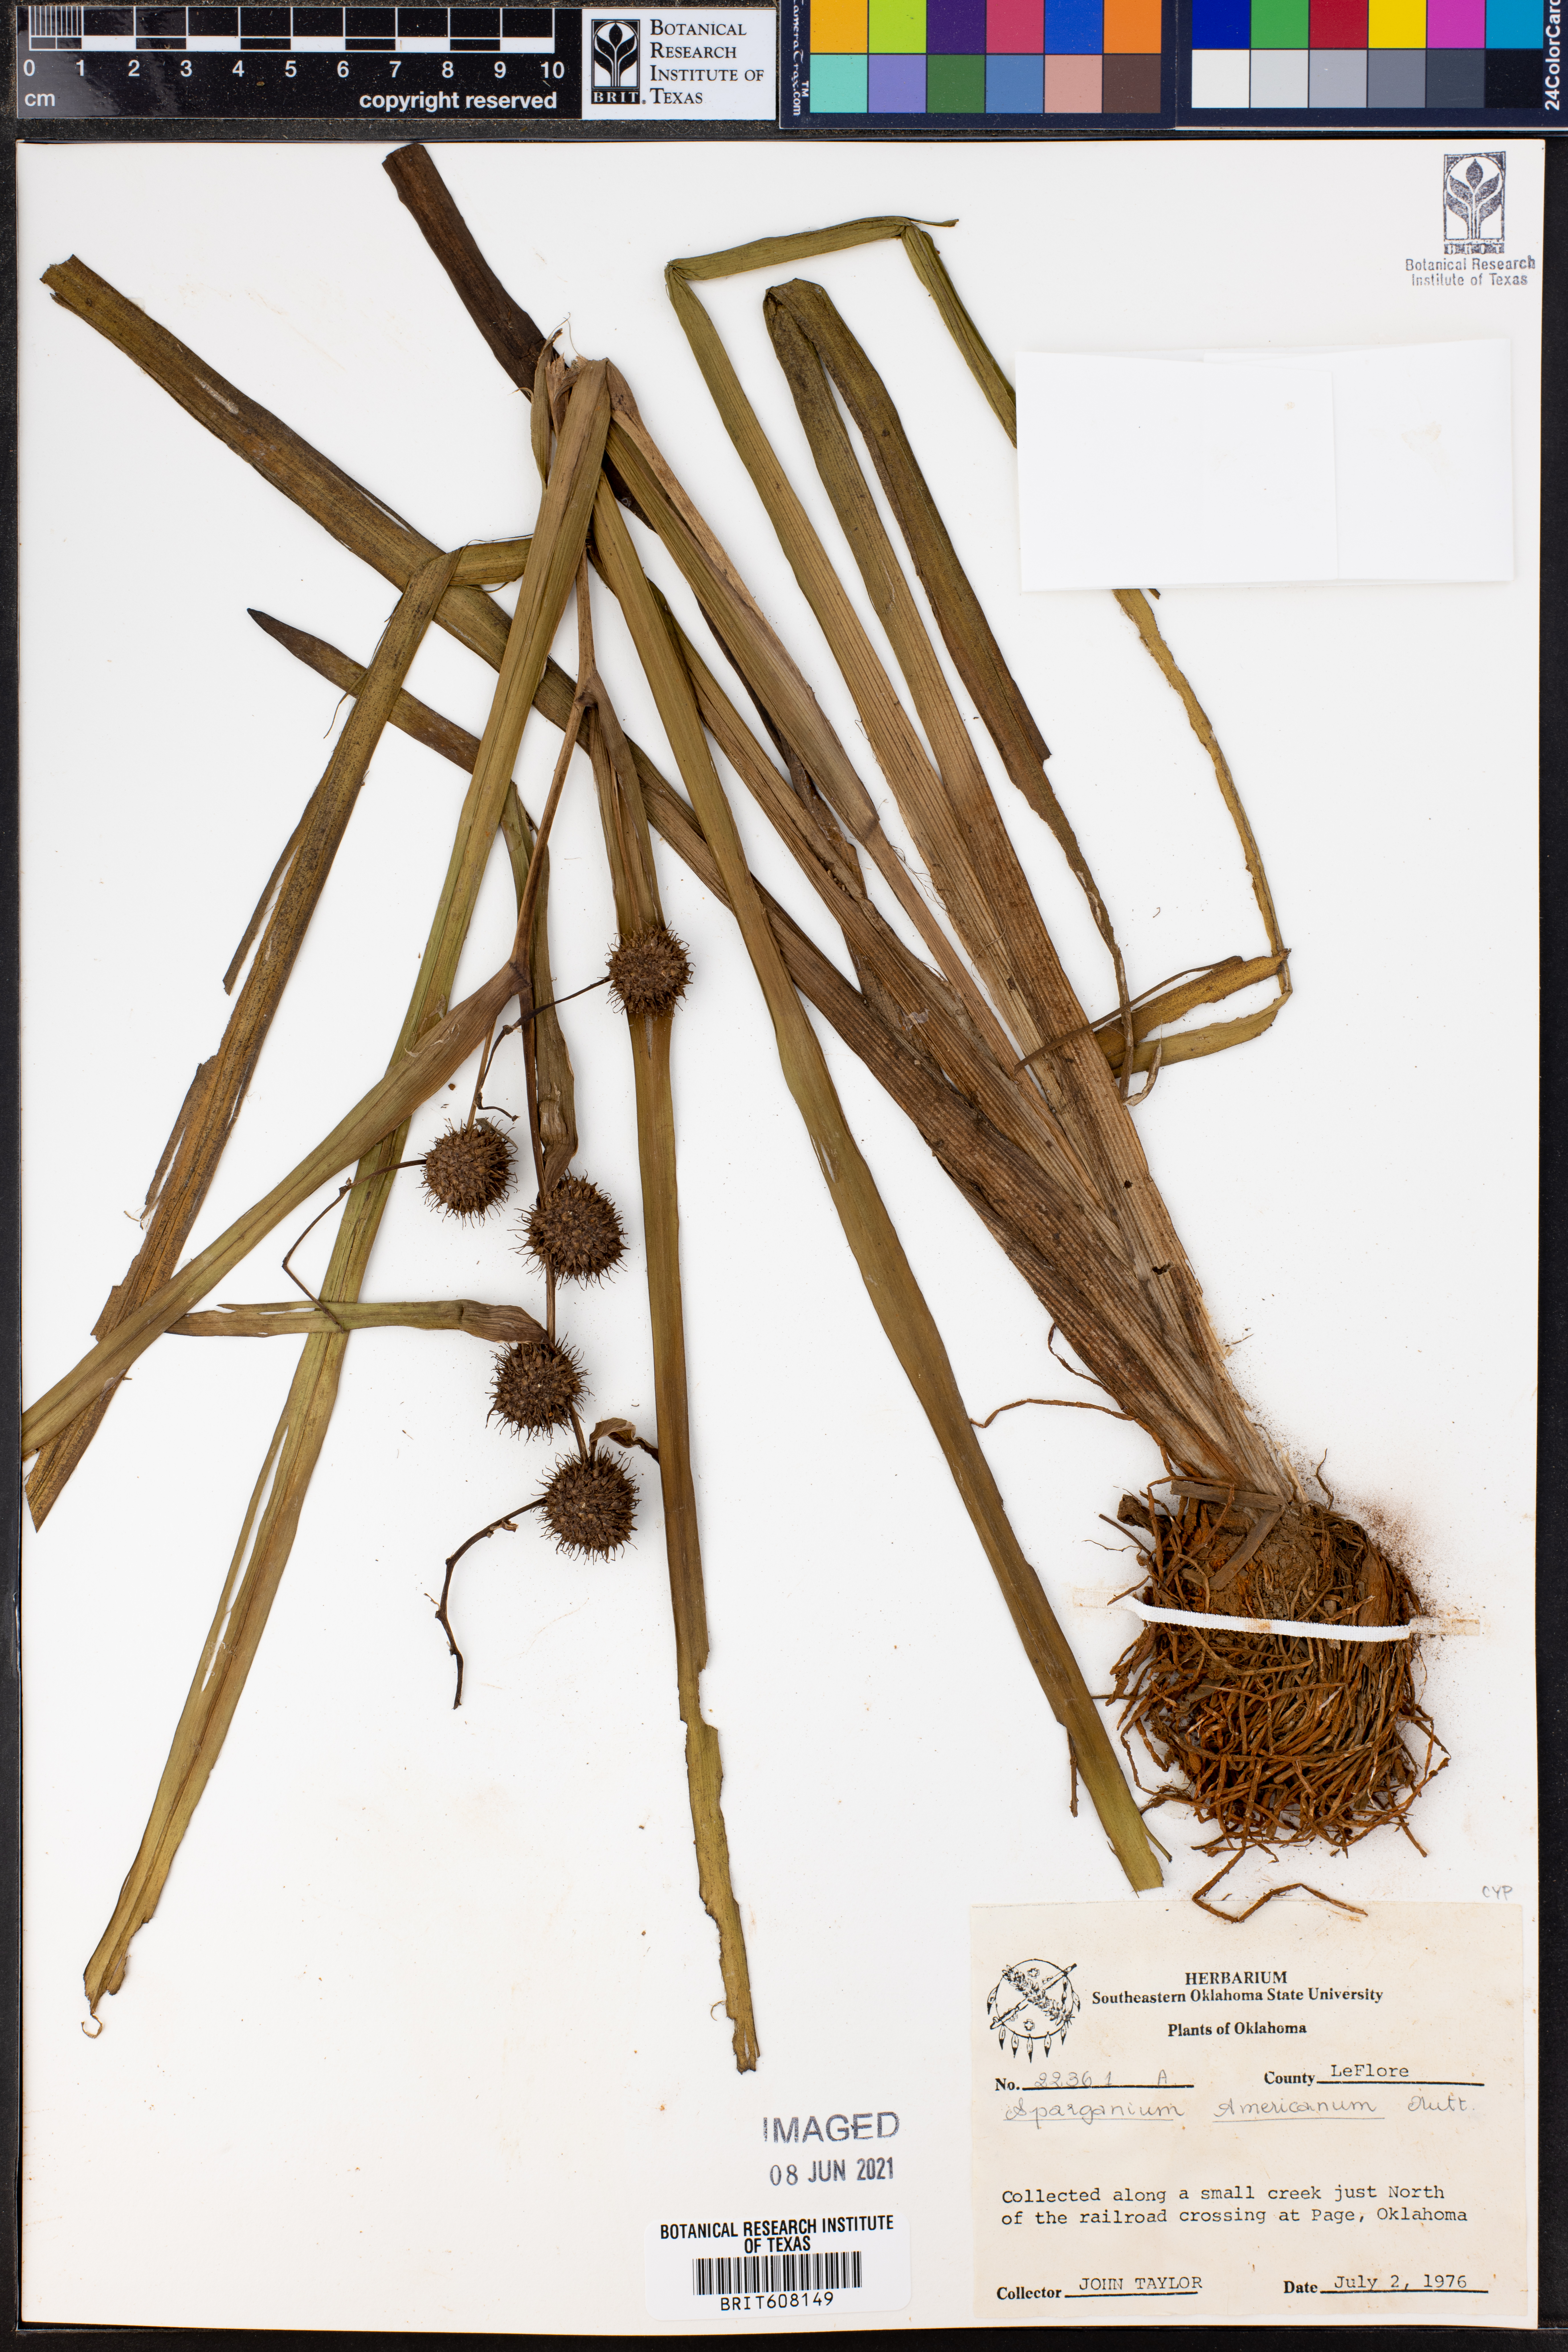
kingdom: Plantae
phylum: Tracheophyta
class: Liliopsida
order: Poales
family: Typhaceae
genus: Sparganium
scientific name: Sparganium americanum
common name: American burreed
